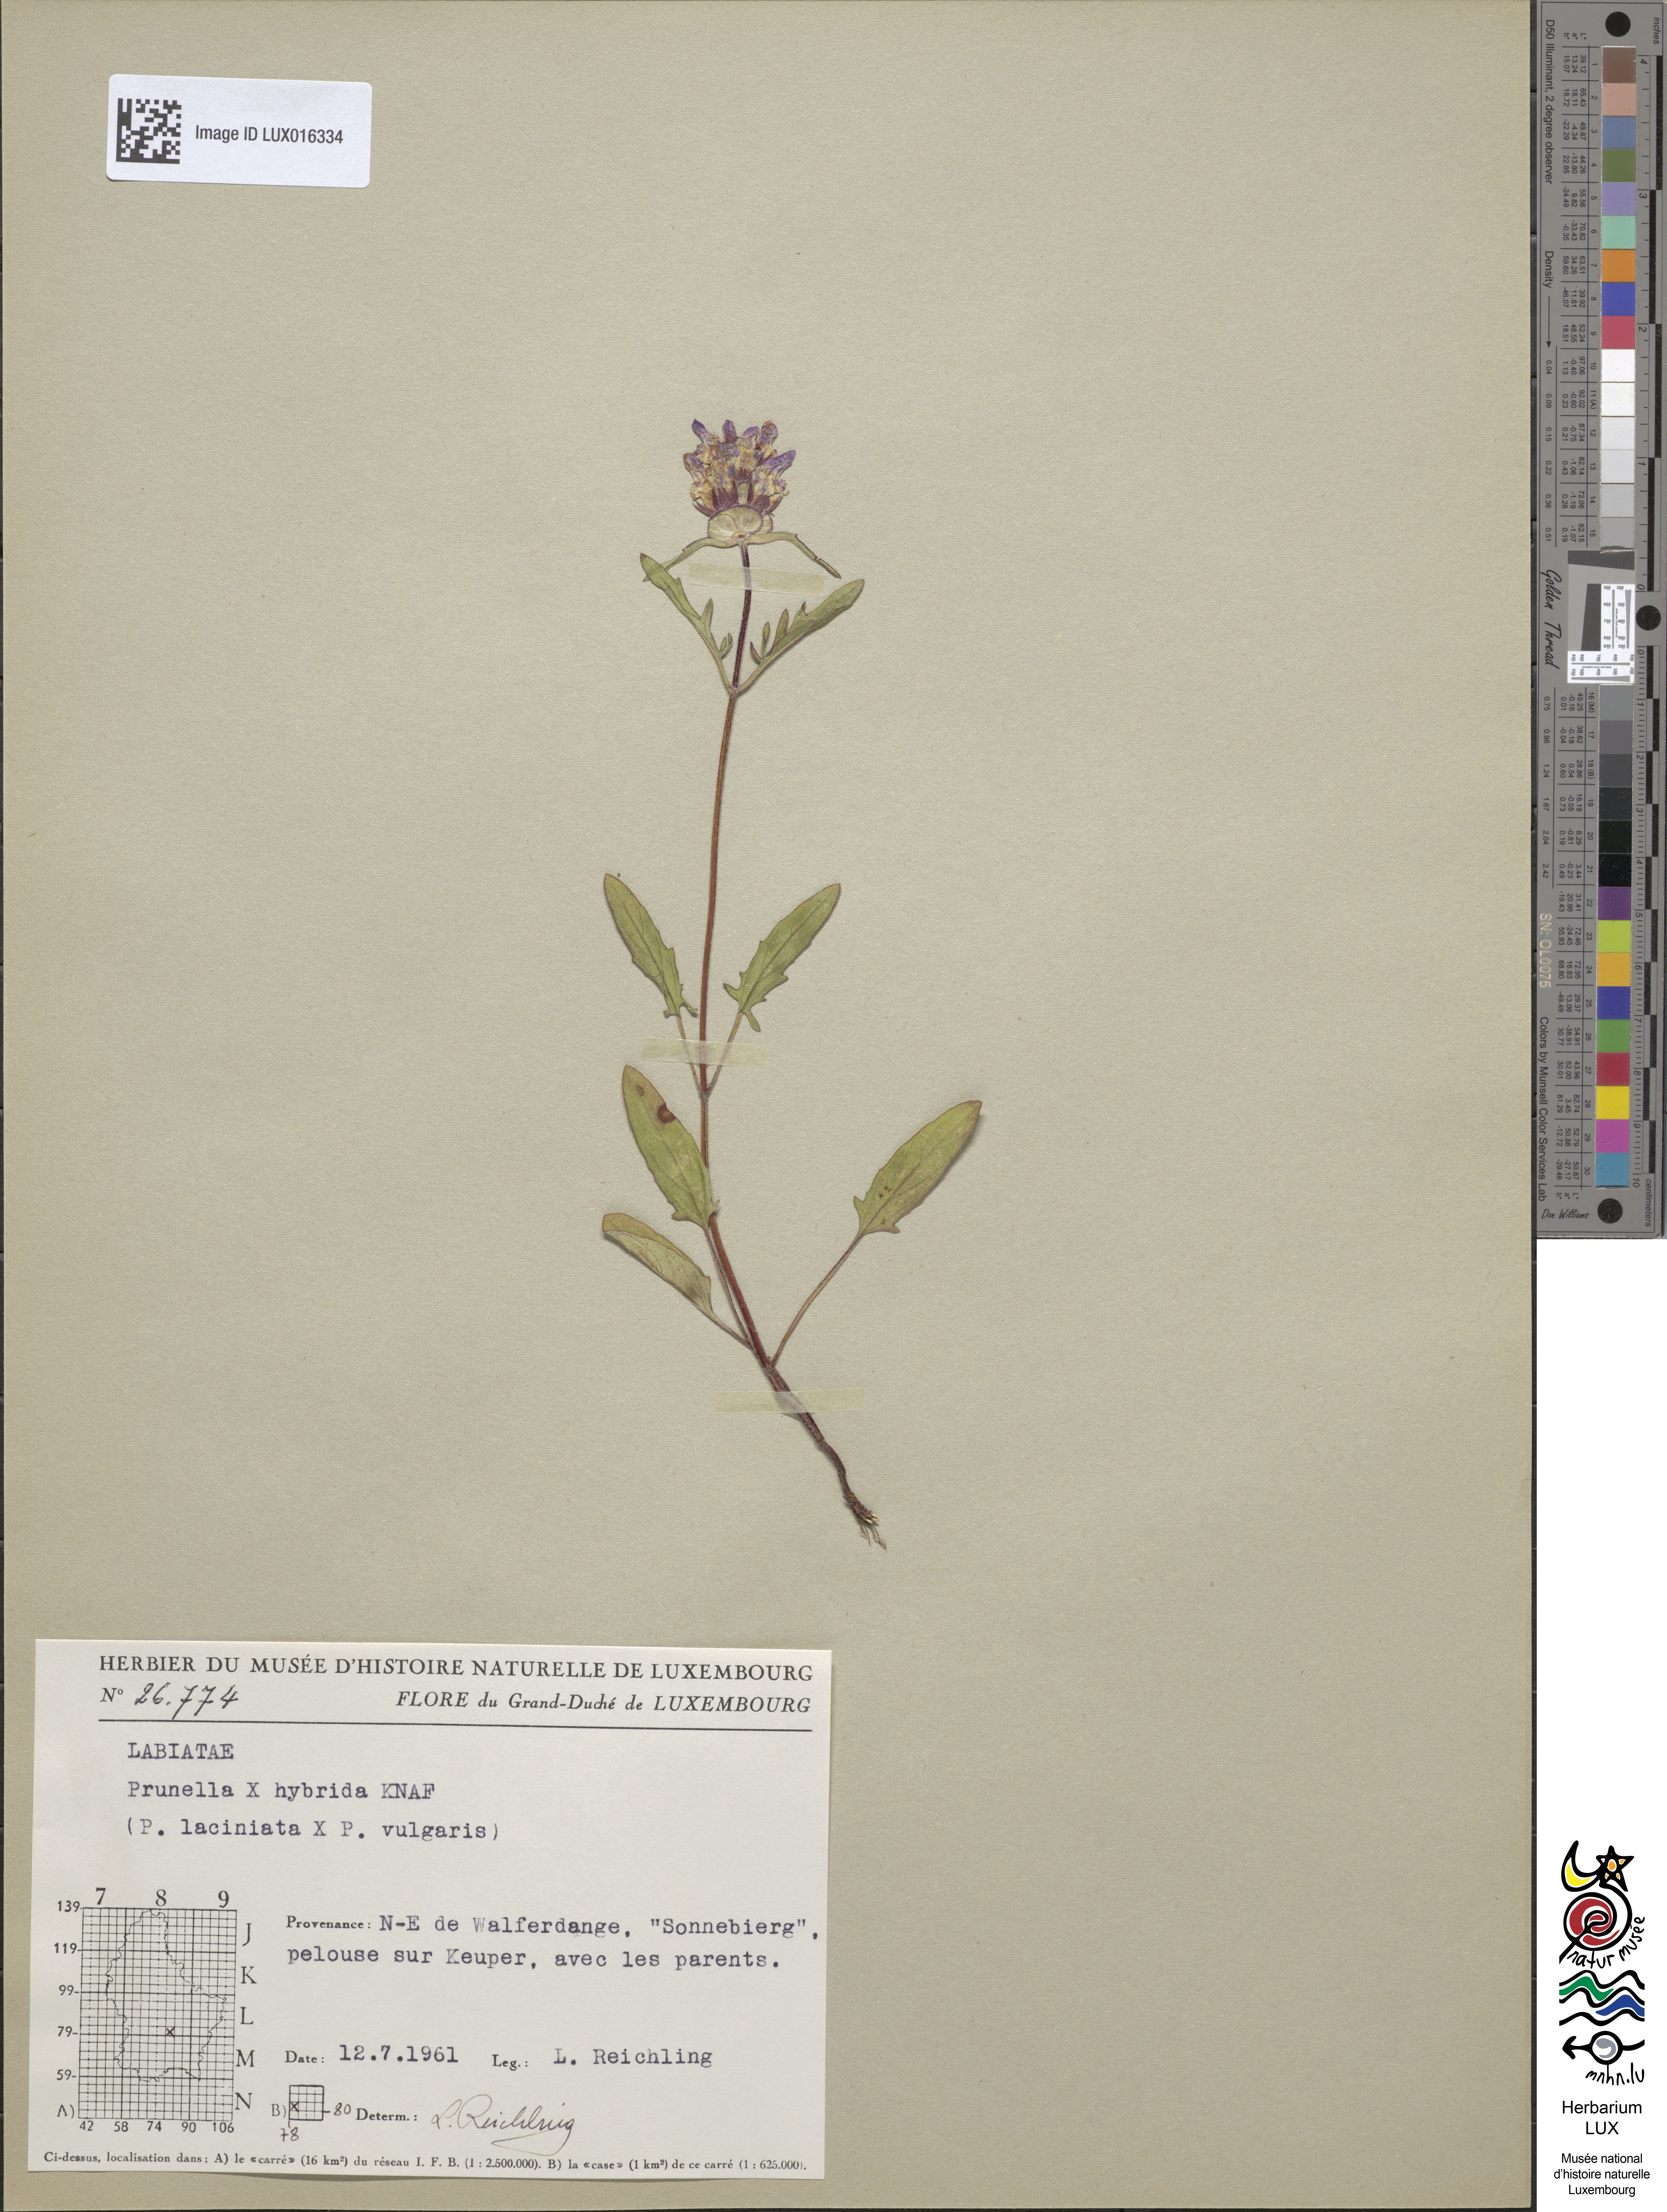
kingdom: Animalia
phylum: Chordata
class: Aves
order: Passeriformes
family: Prunellidae
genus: Prunella
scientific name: Prunella
